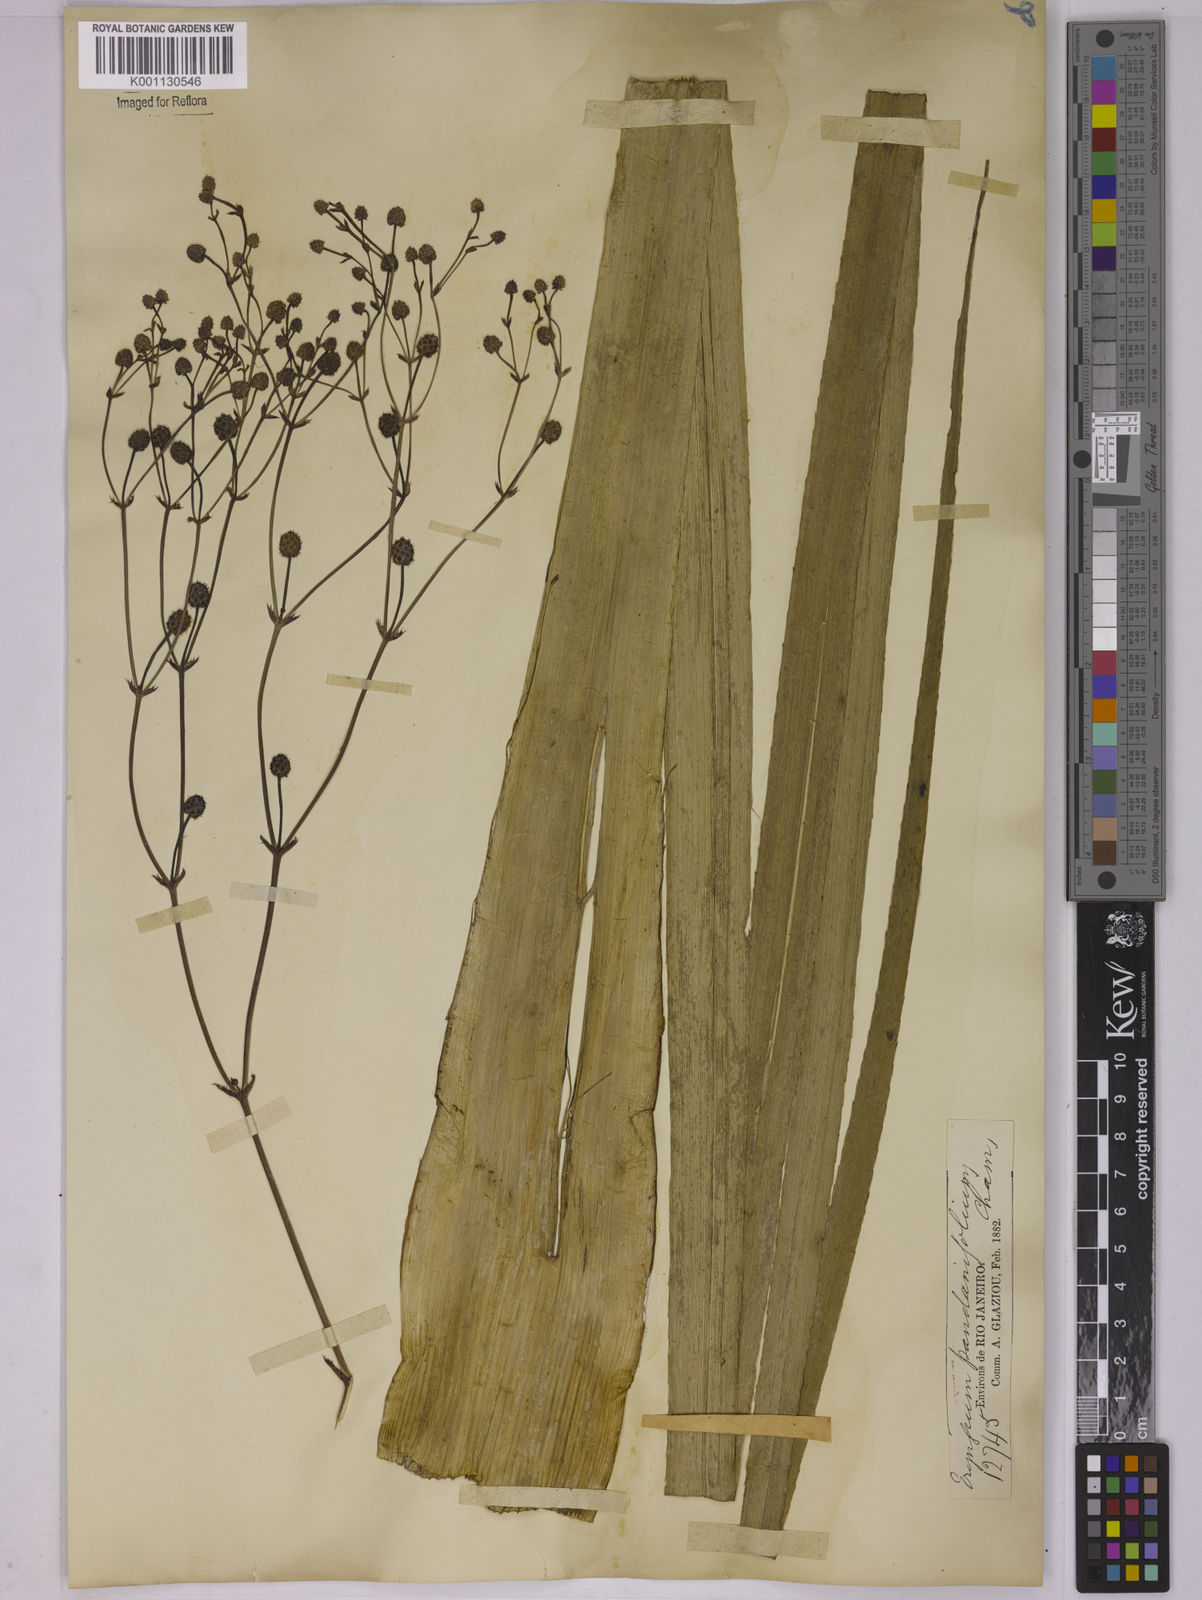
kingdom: Plantae
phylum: Tracheophyta
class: Magnoliopsida
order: Apiales
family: Apiaceae
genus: Eryngium
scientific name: Eryngium pandanifolium
